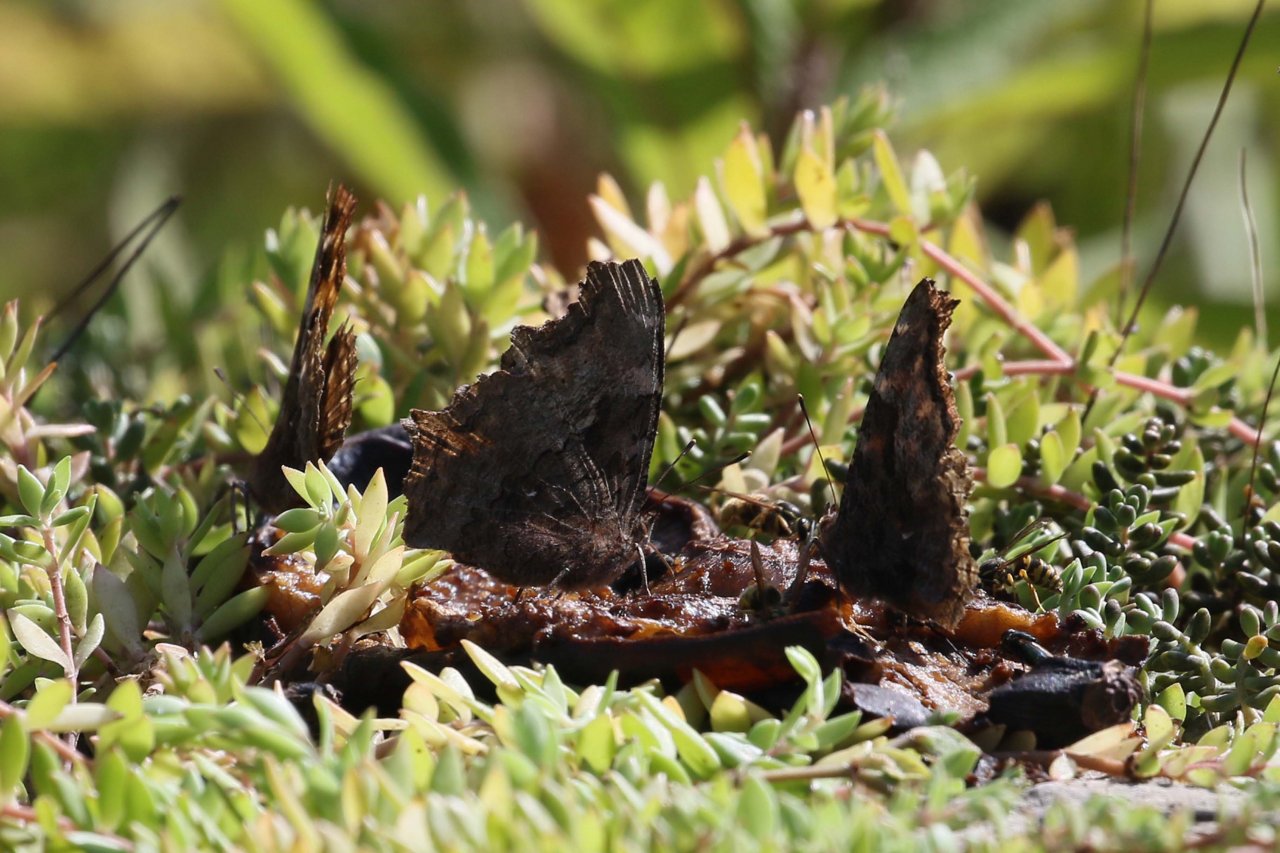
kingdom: Animalia
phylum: Arthropoda
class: Insecta
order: Lepidoptera
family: Nymphalidae
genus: Polygonia
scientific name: Polygonia vaualbum
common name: Compton Tortoiseshell
